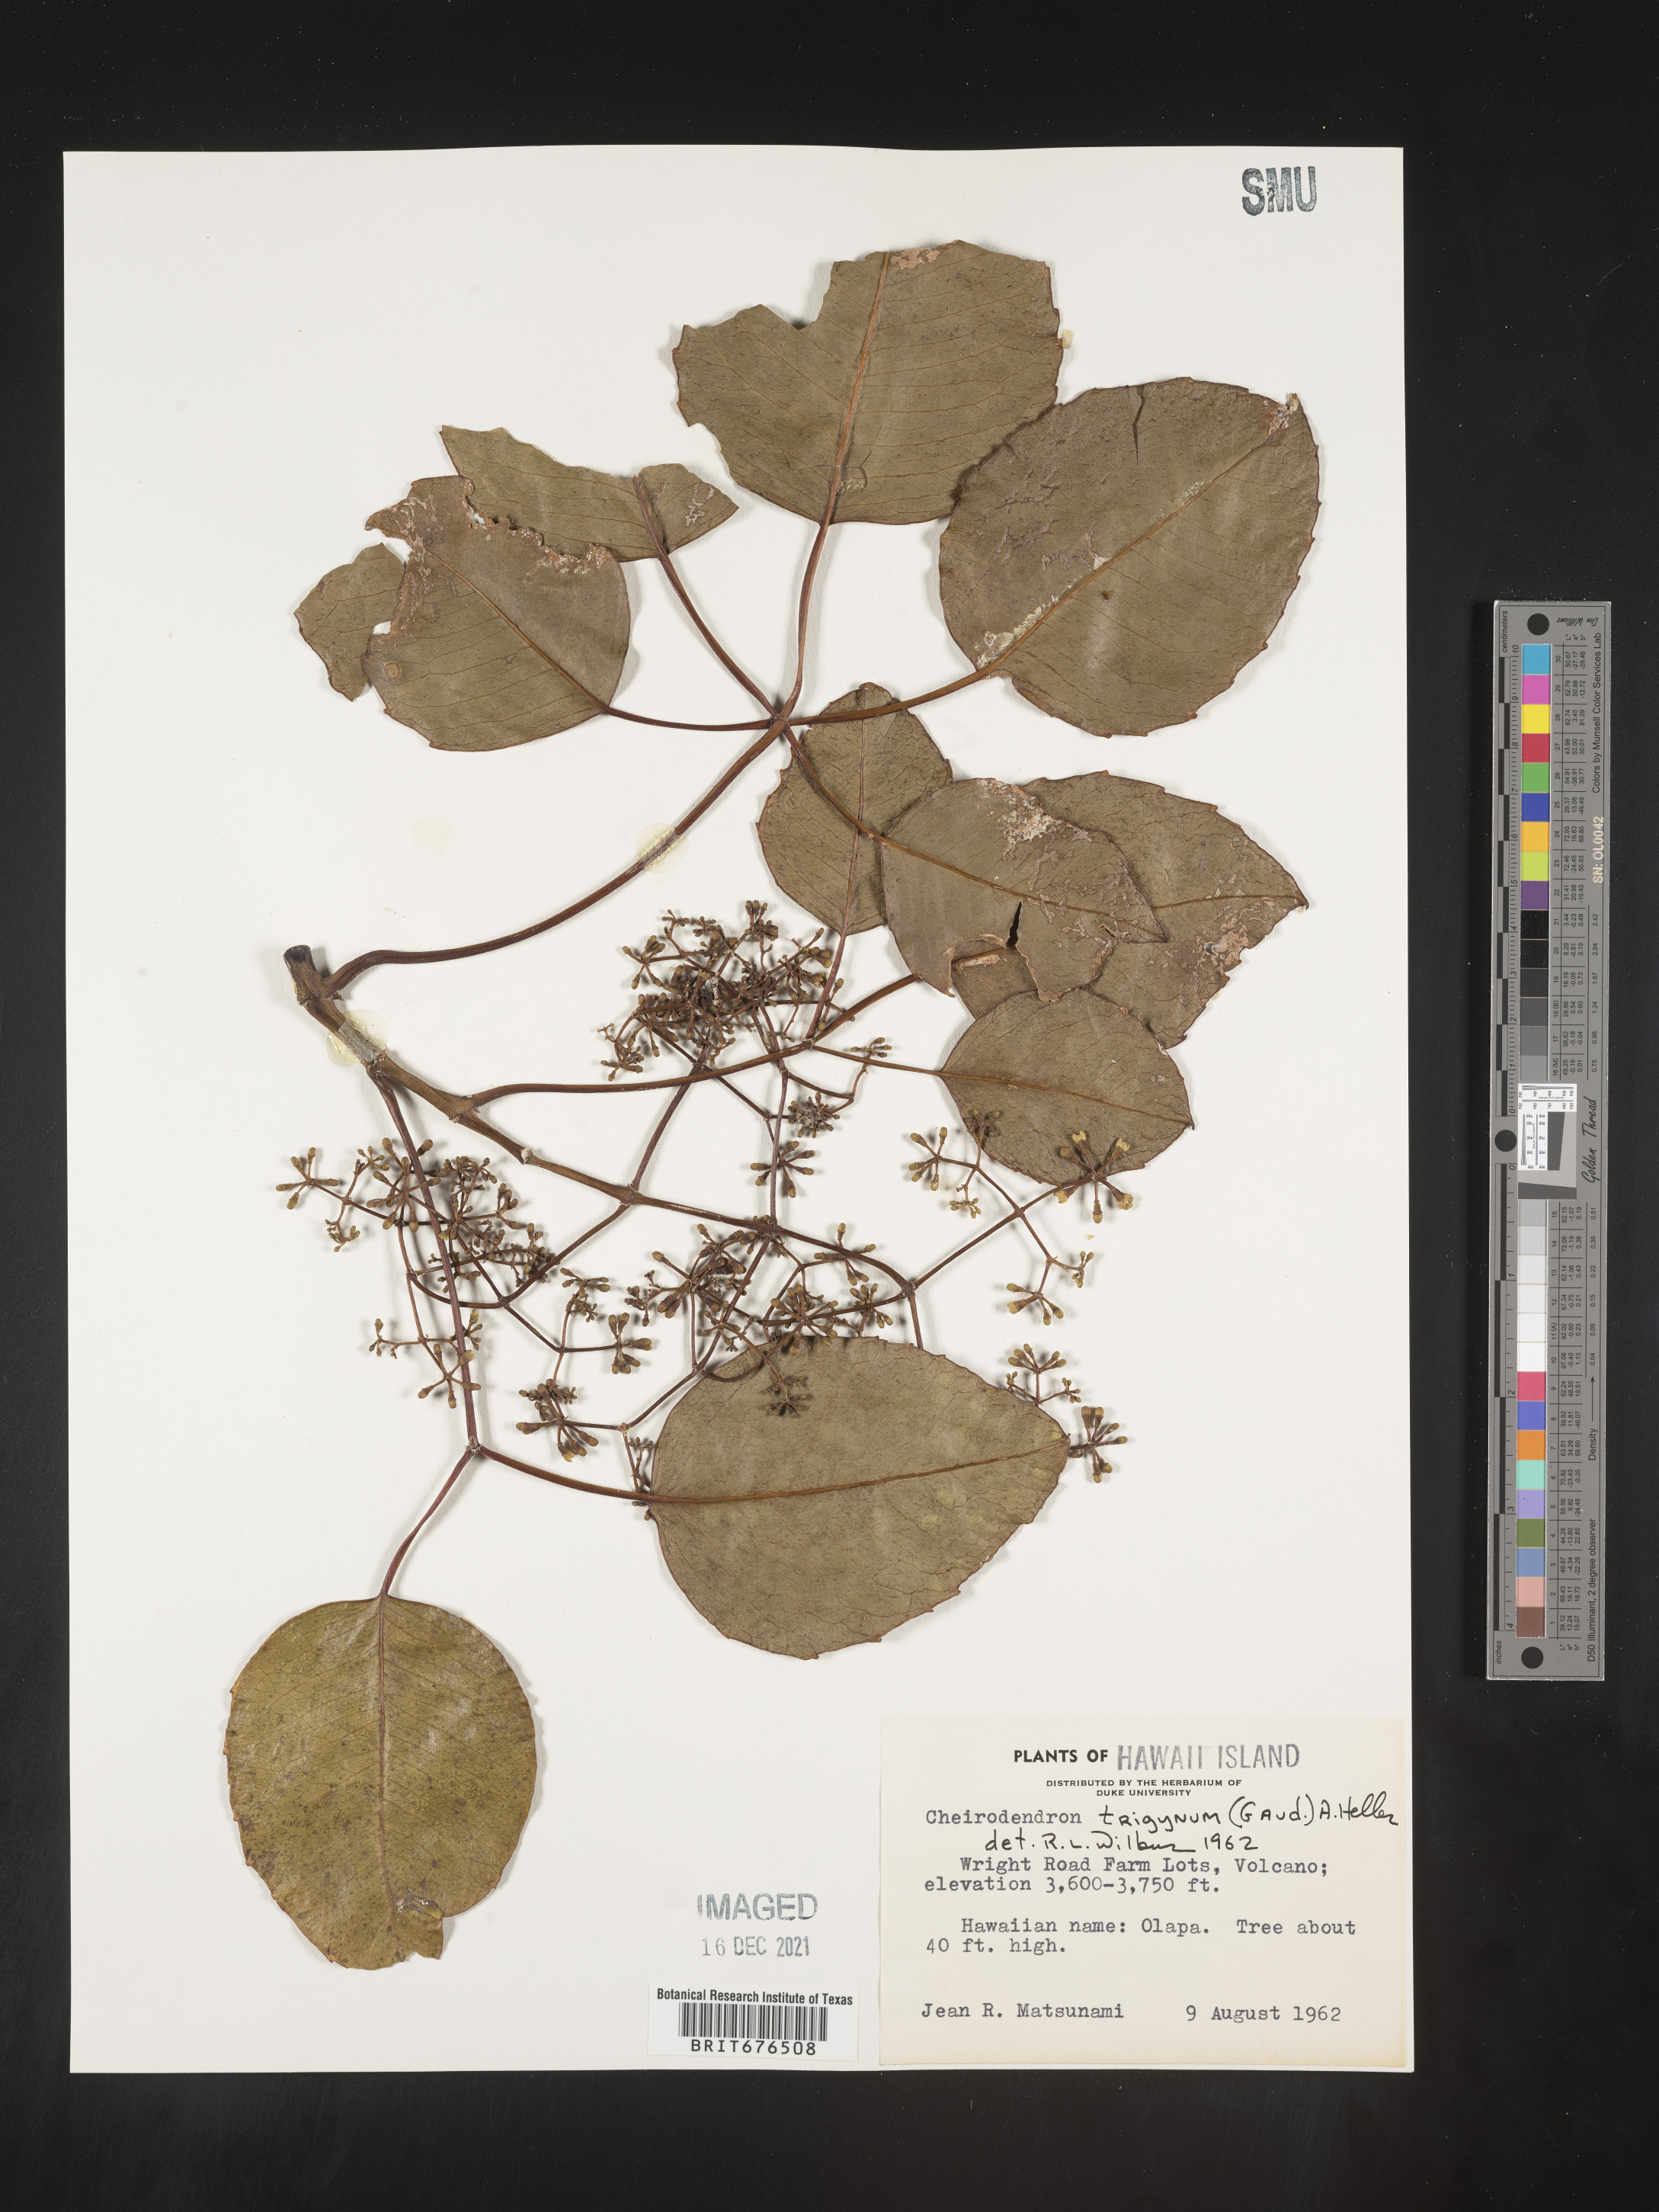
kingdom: Plantae
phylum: Tracheophyta
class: Magnoliopsida
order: Apiales
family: Araliaceae
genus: Cheirodendron
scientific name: Cheirodendron trigynum
